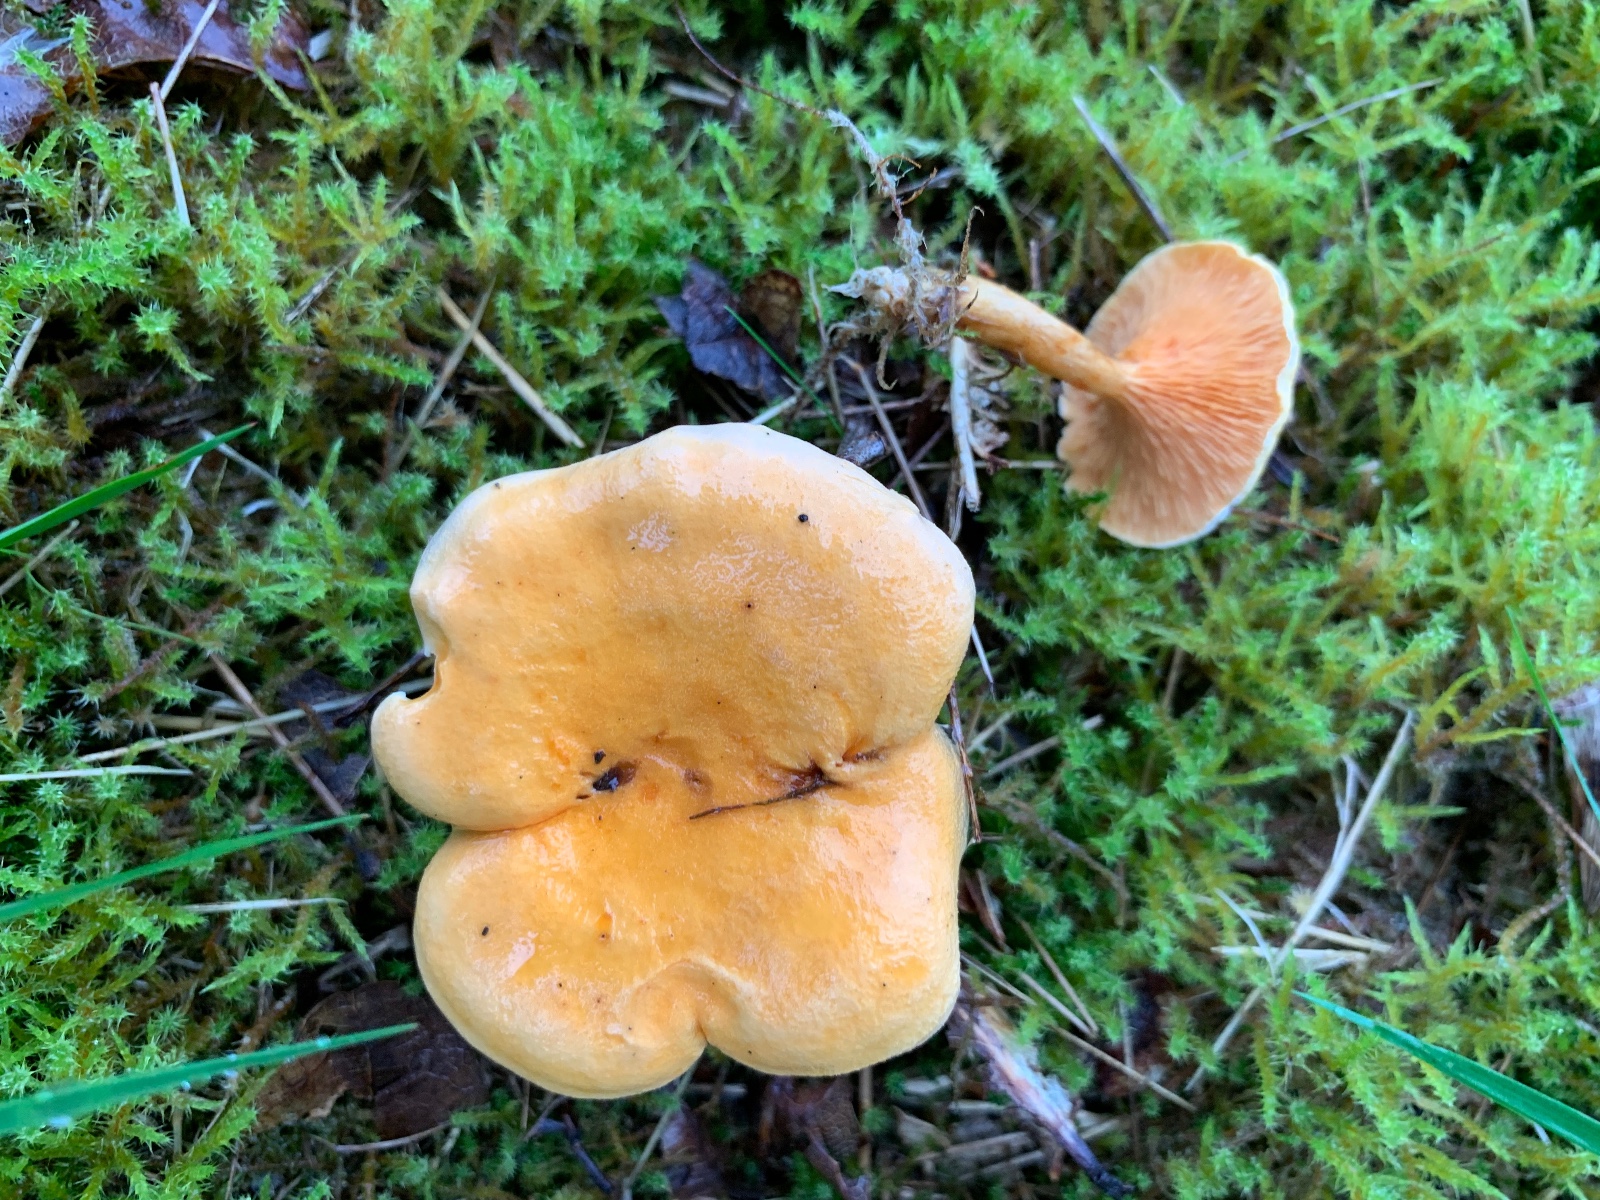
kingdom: Fungi
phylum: Basidiomycota
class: Agaricomycetes
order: Boletales
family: Hygrophoropsidaceae
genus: Hygrophoropsis
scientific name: Hygrophoropsis aurantiaca
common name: almindelig orangekantarel
